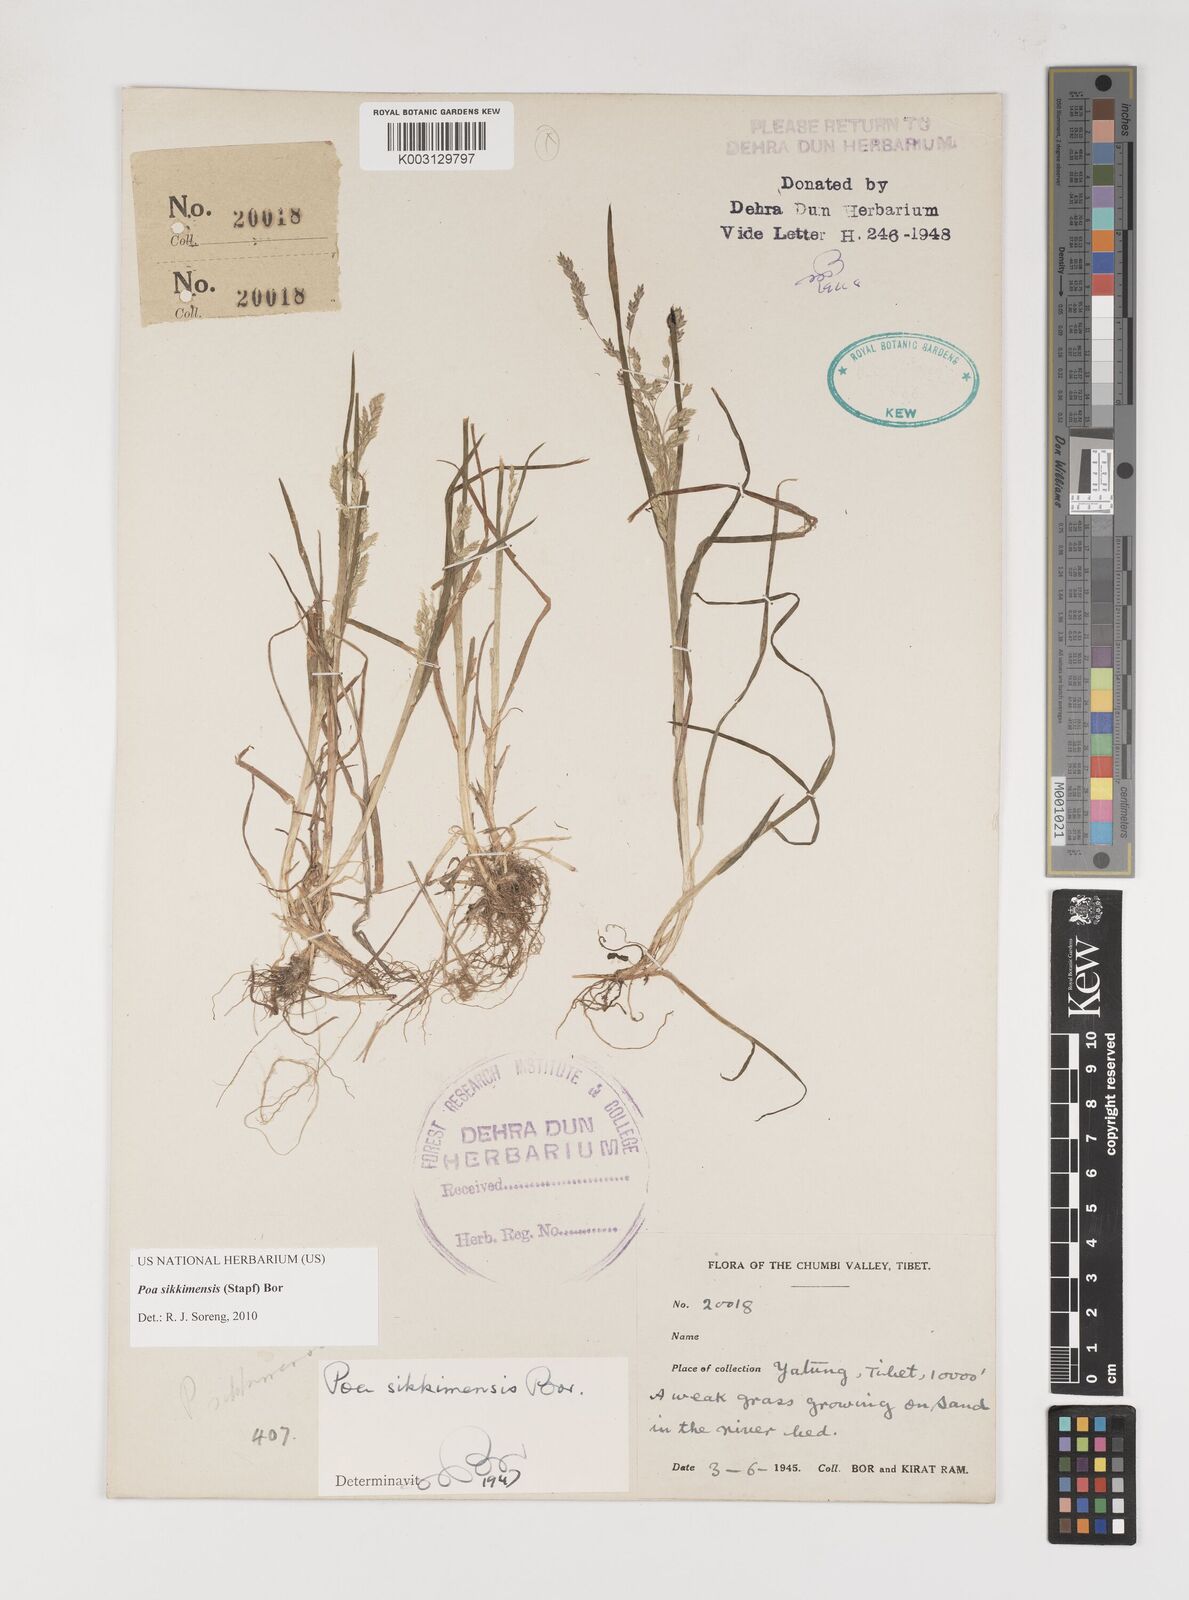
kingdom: Plantae
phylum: Tracheophyta
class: Liliopsida
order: Poales
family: Poaceae
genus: Poa
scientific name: Poa sikkimensis
